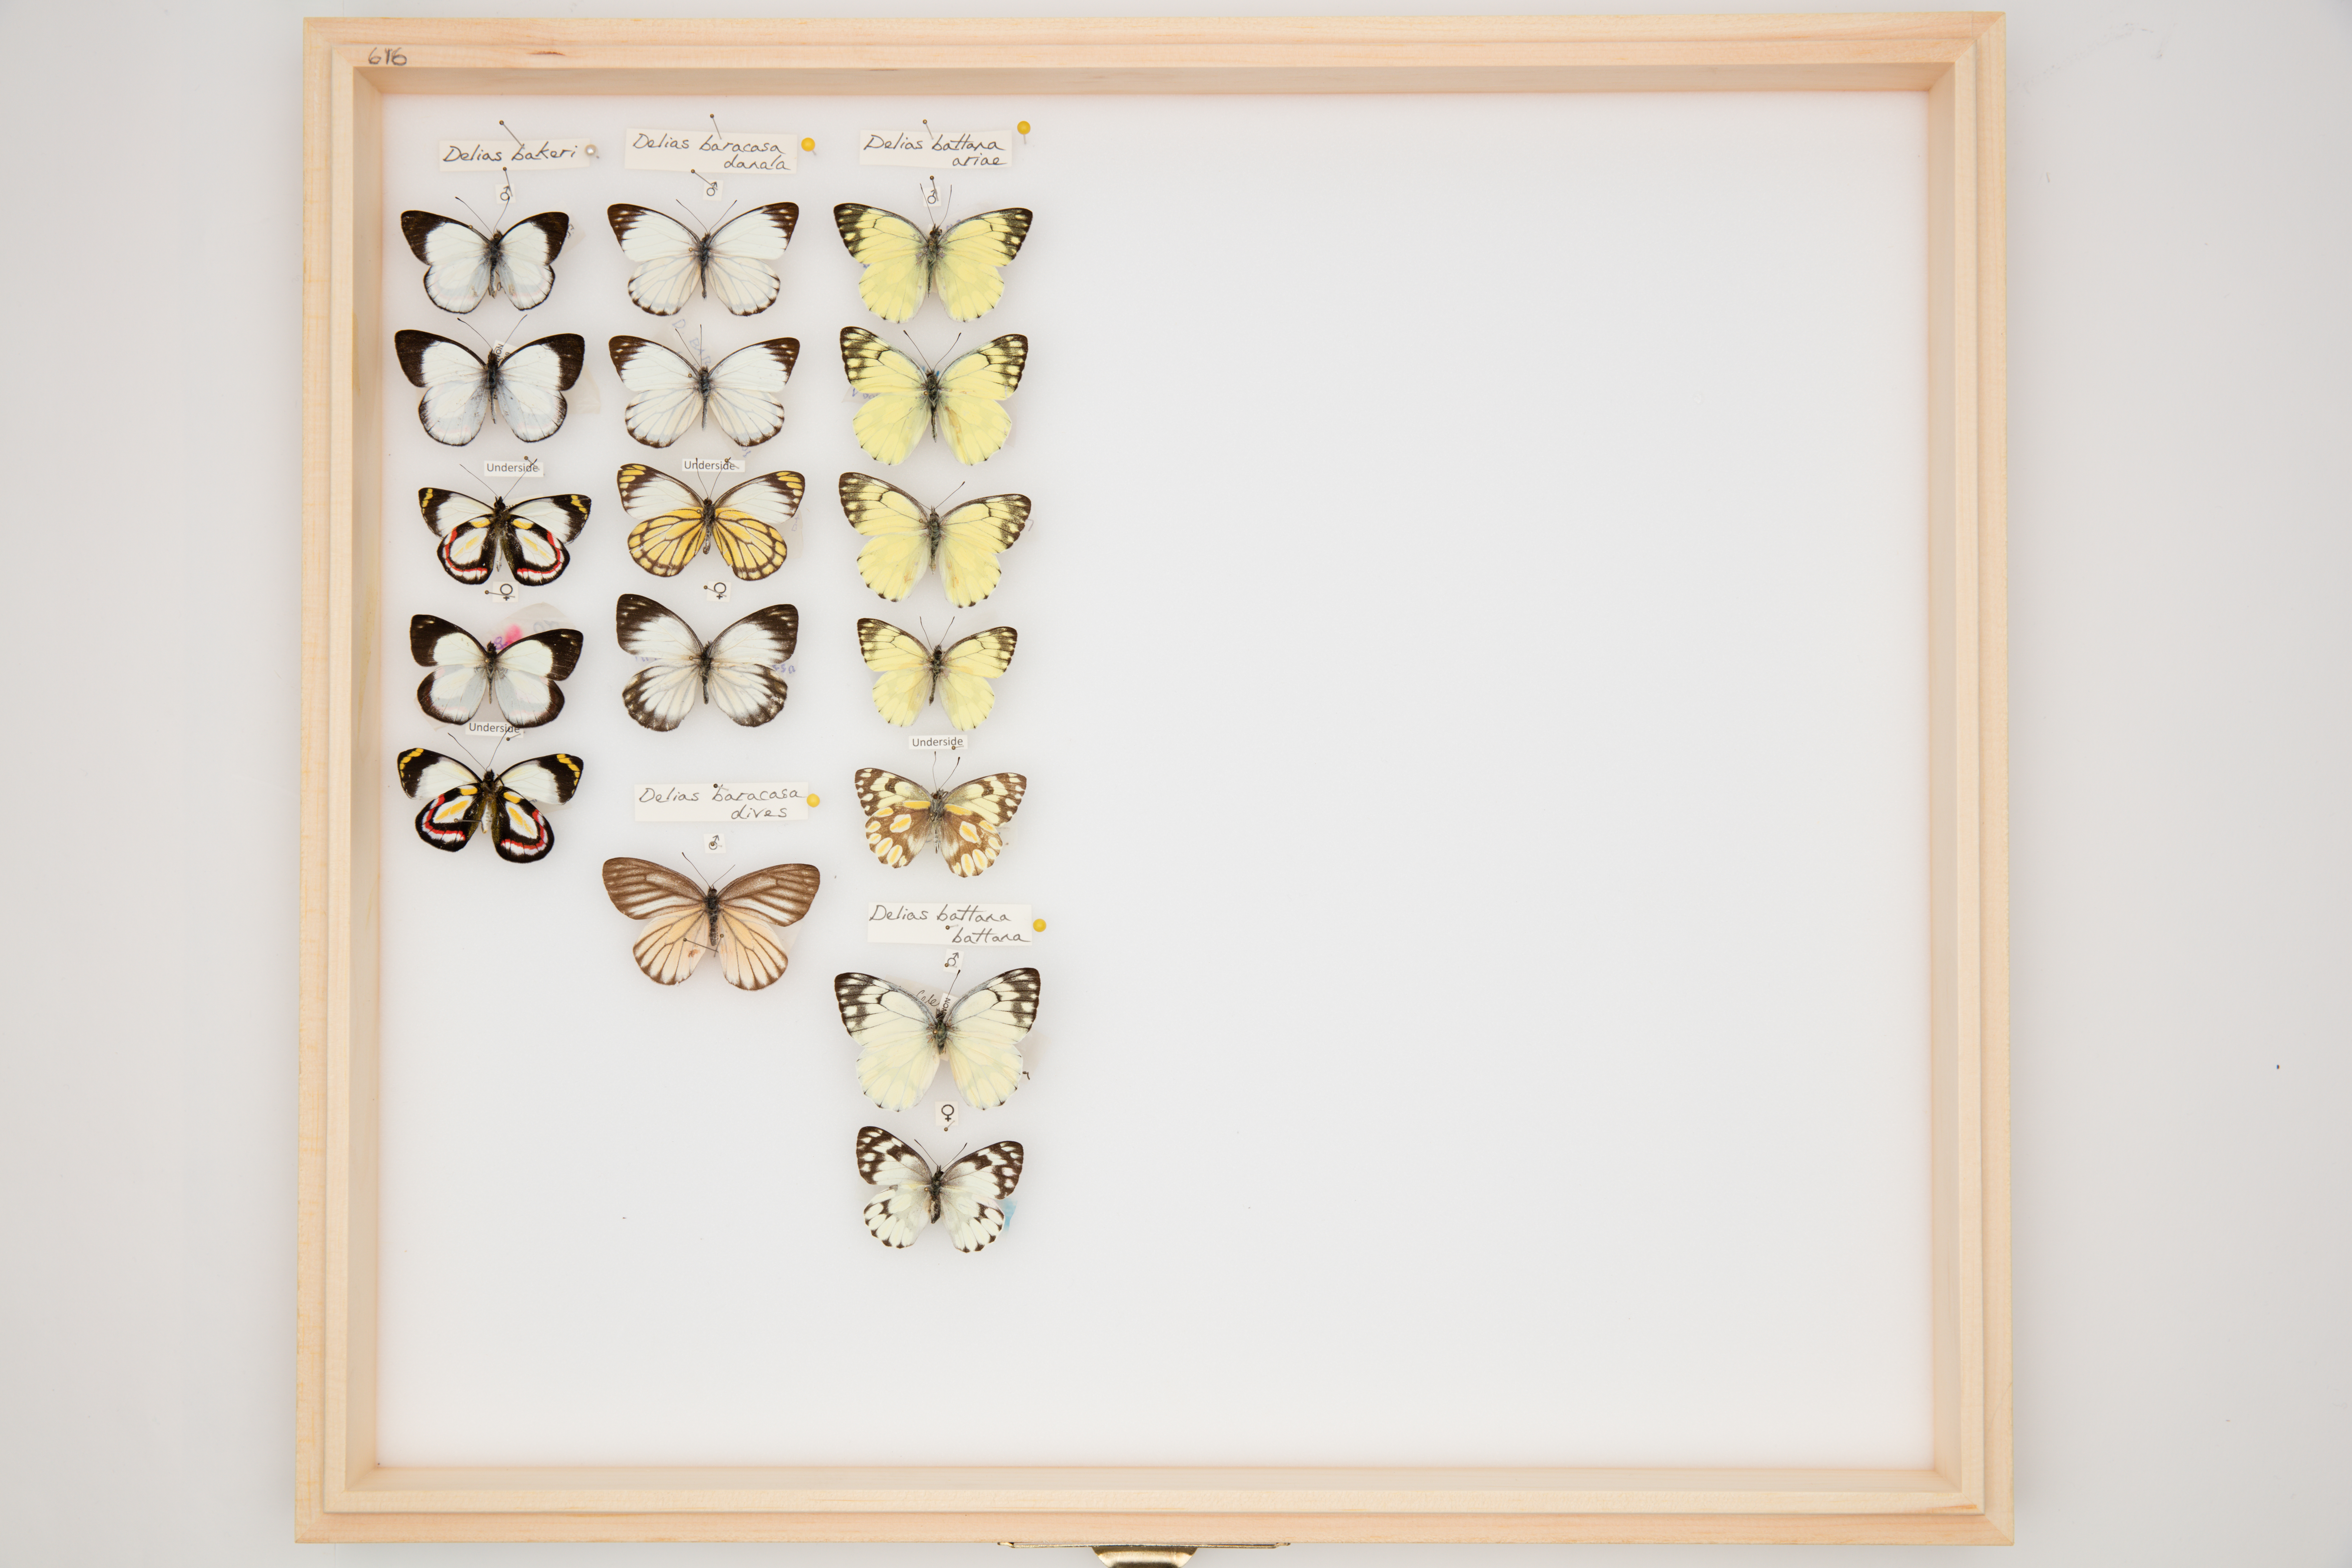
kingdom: Animalia
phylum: Arthropoda
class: Insecta
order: Lepidoptera
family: Pieridae
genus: Delias
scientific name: Delias battana
